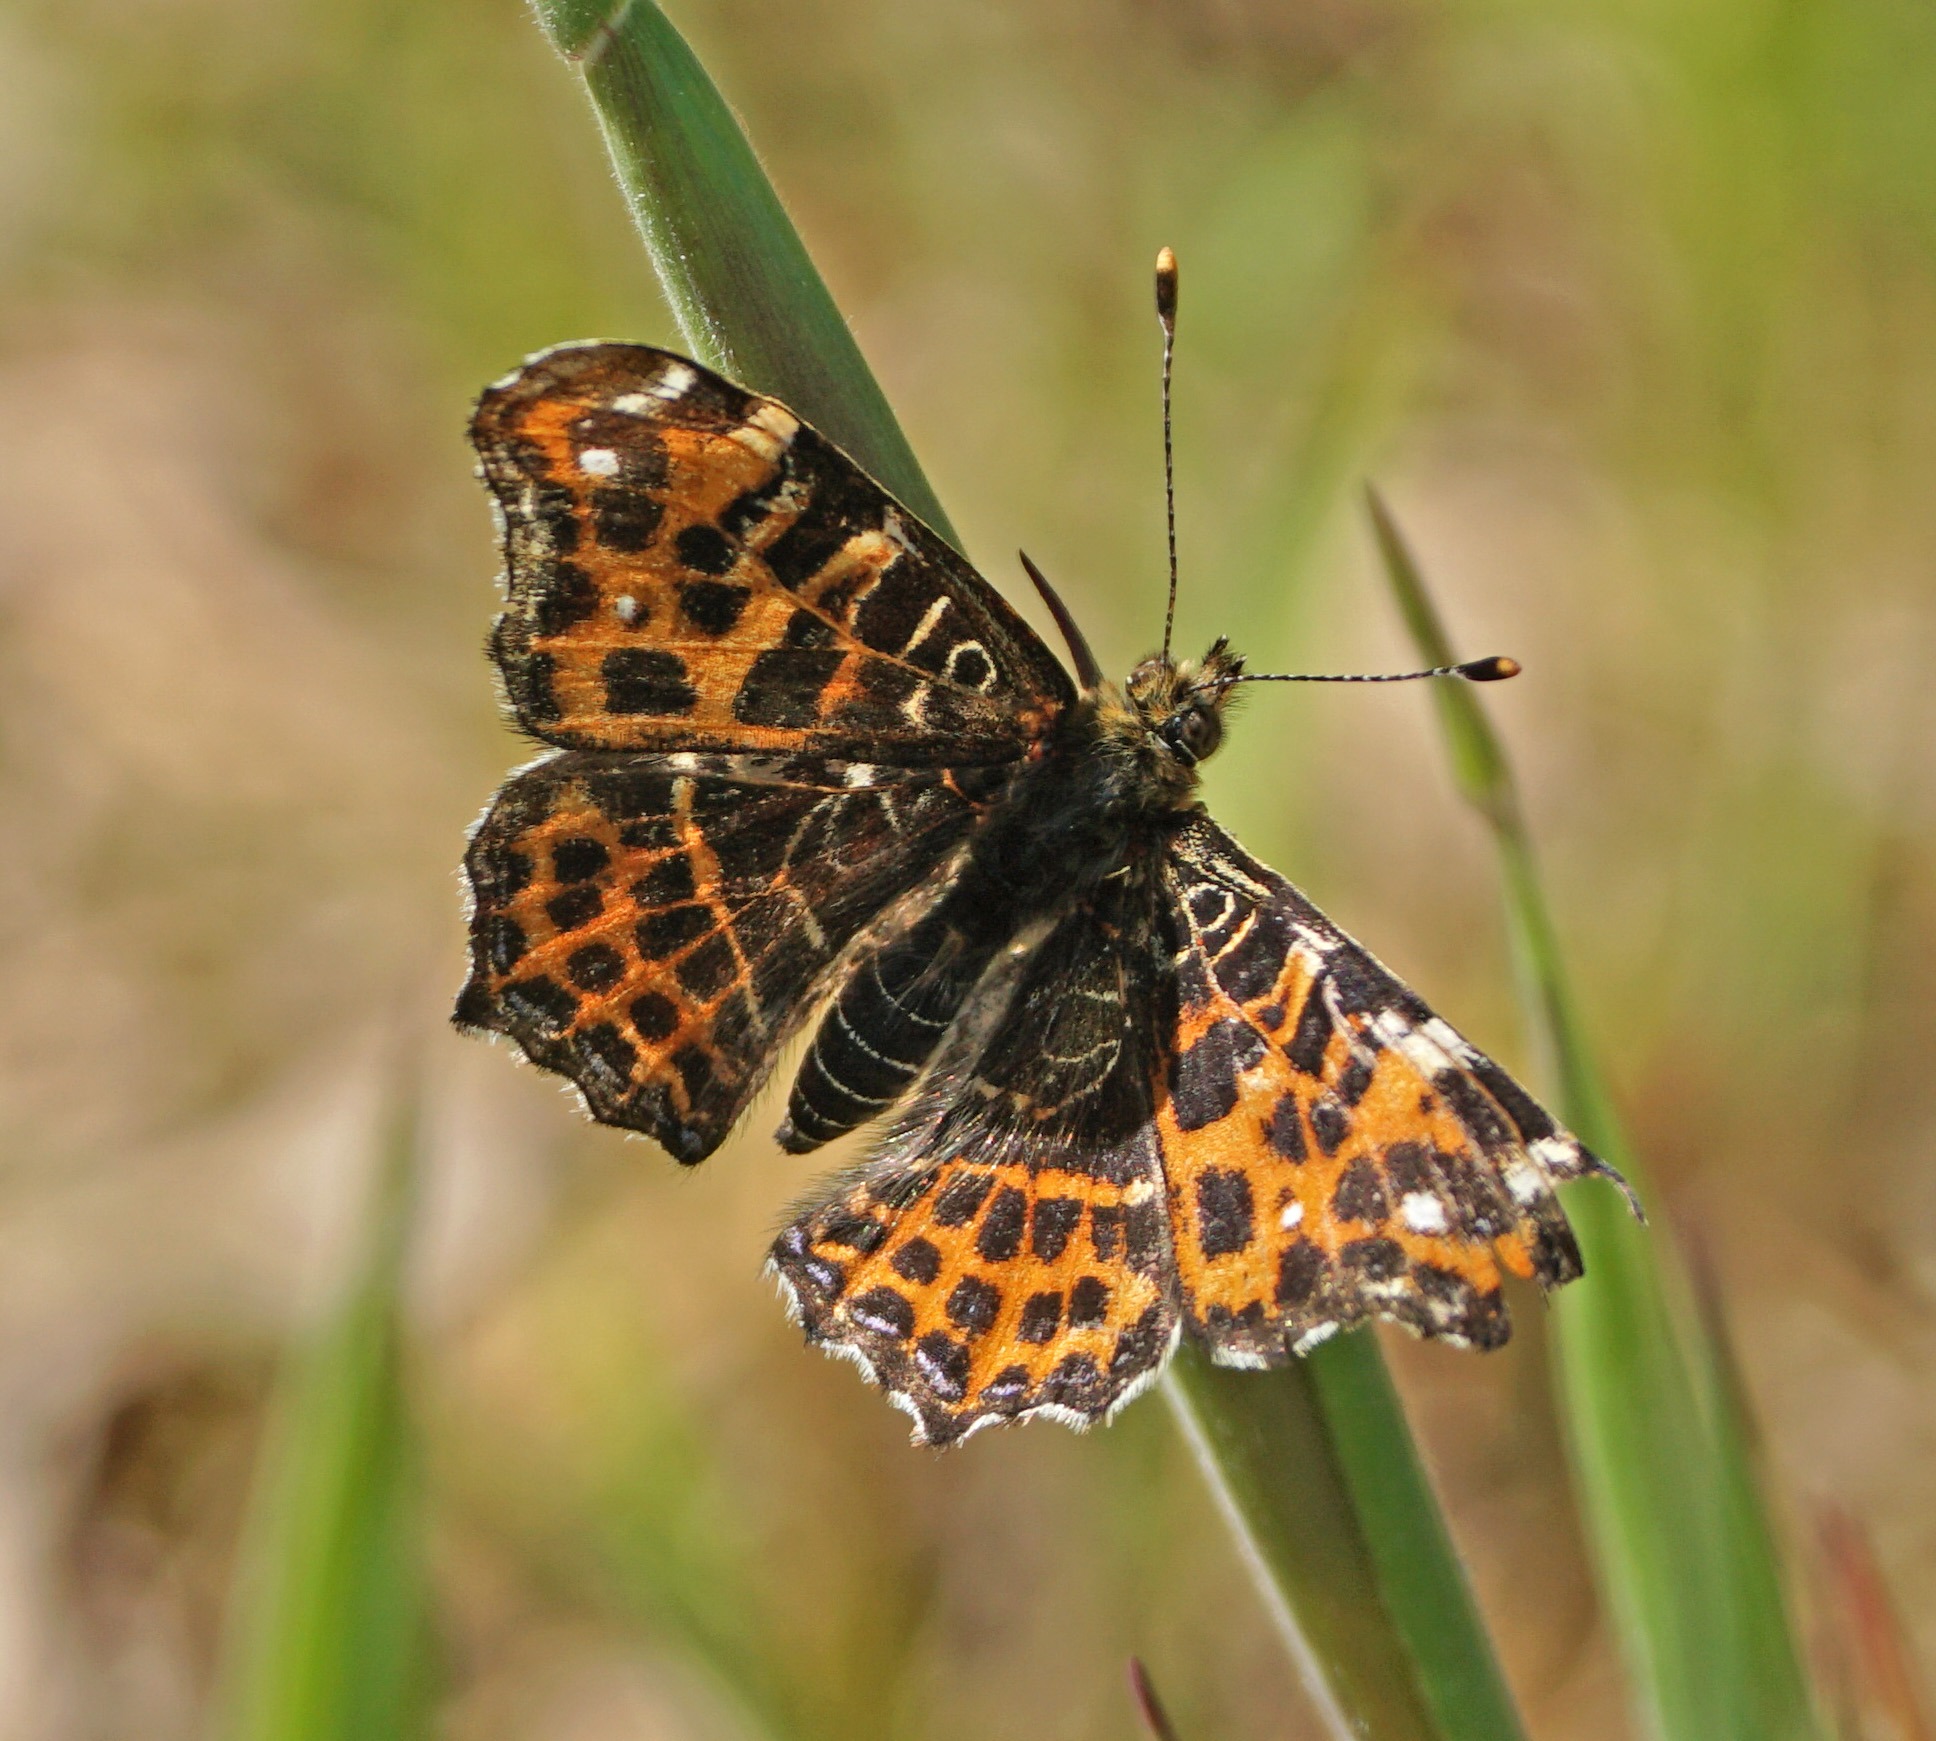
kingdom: Animalia
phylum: Arthropoda
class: Insecta
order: Lepidoptera
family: Nymphalidae
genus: Araschnia
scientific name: Araschnia levana
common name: Nældesommerfugl
